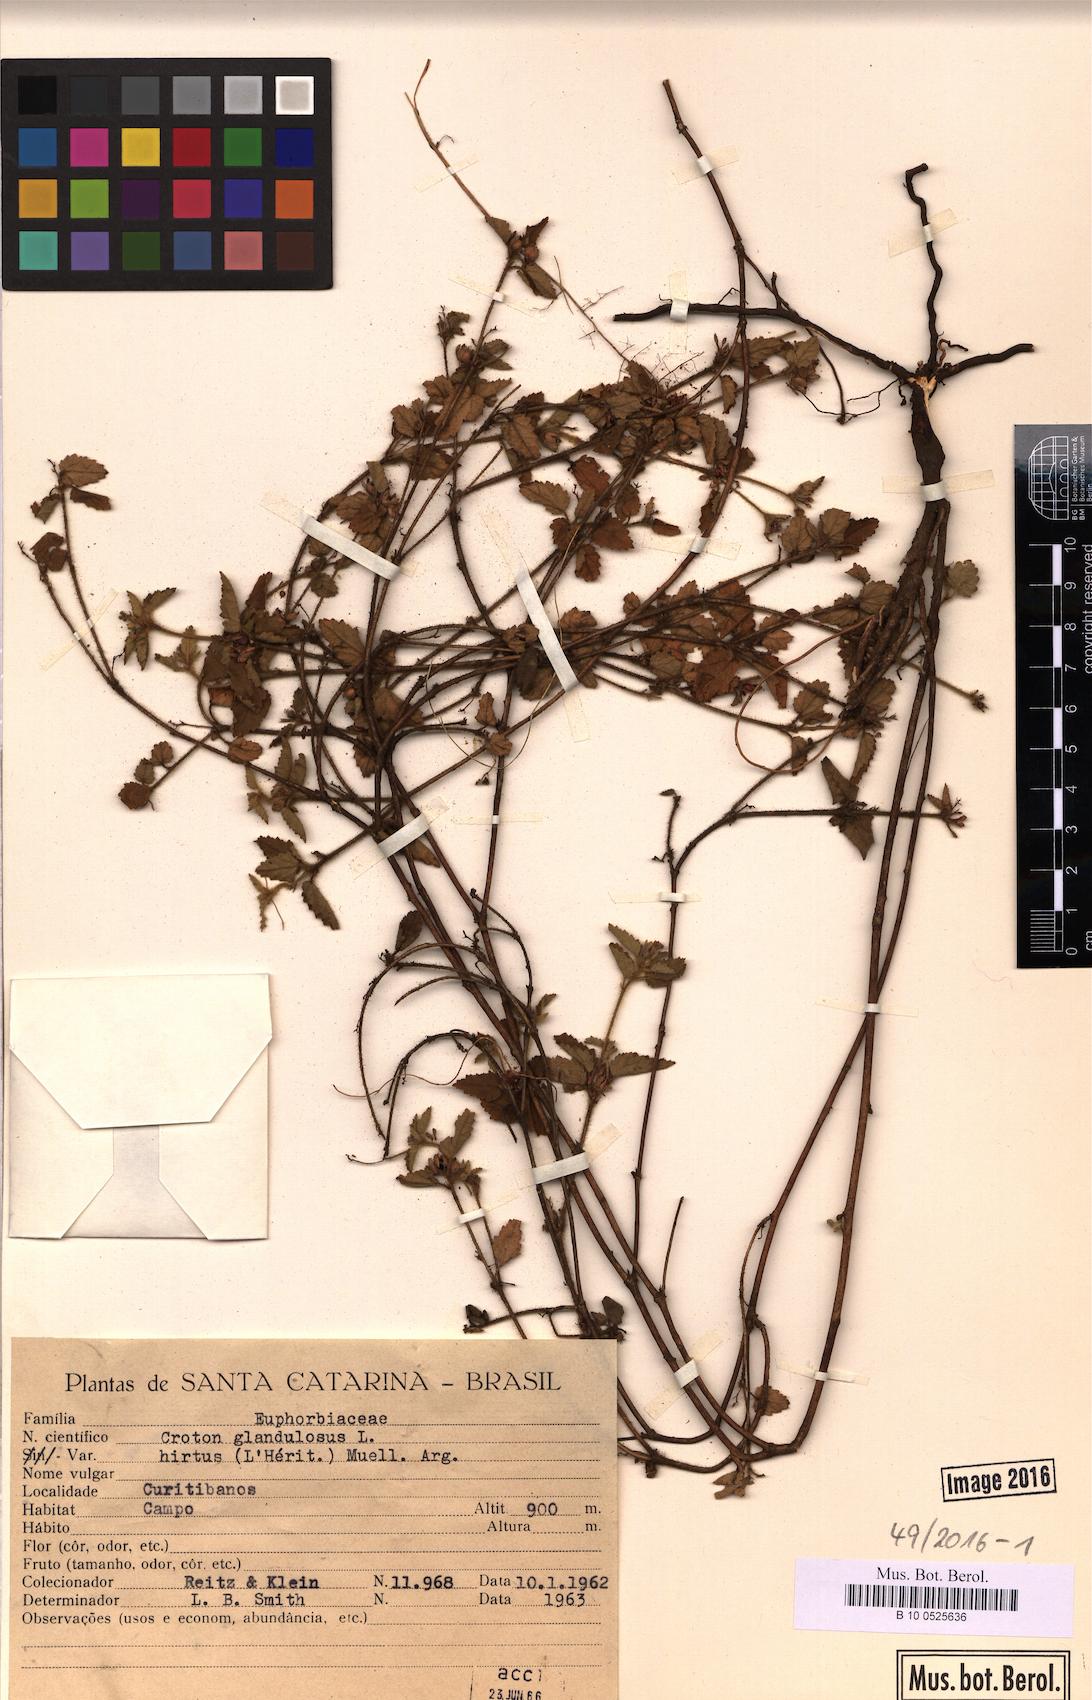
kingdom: Plantae
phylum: Tracheophyta
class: Magnoliopsida
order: Malpighiales
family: Euphorbiaceae
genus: Croton
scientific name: Croton glandulosus
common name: Tropic croton
